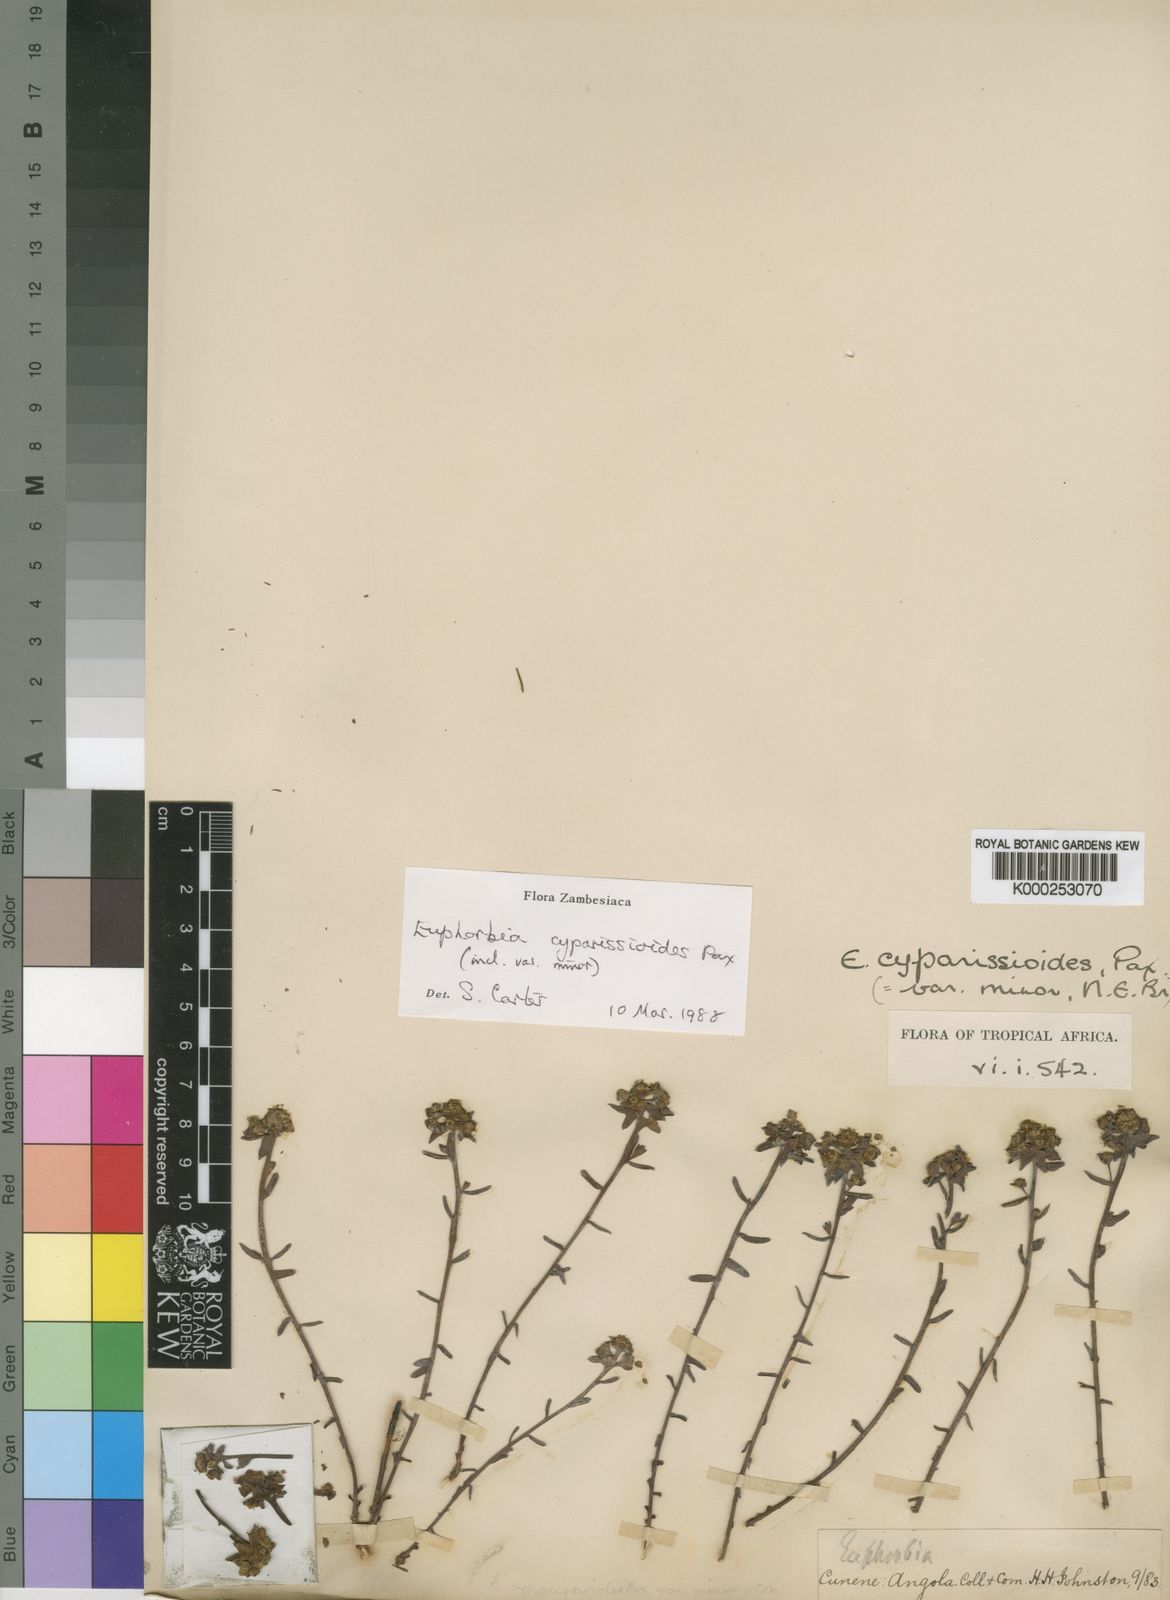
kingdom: Plantae
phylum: Tracheophyta
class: Magnoliopsida
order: Malpighiales
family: Euphorbiaceae
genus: Euphorbia
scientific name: Euphorbia cyparissioides
